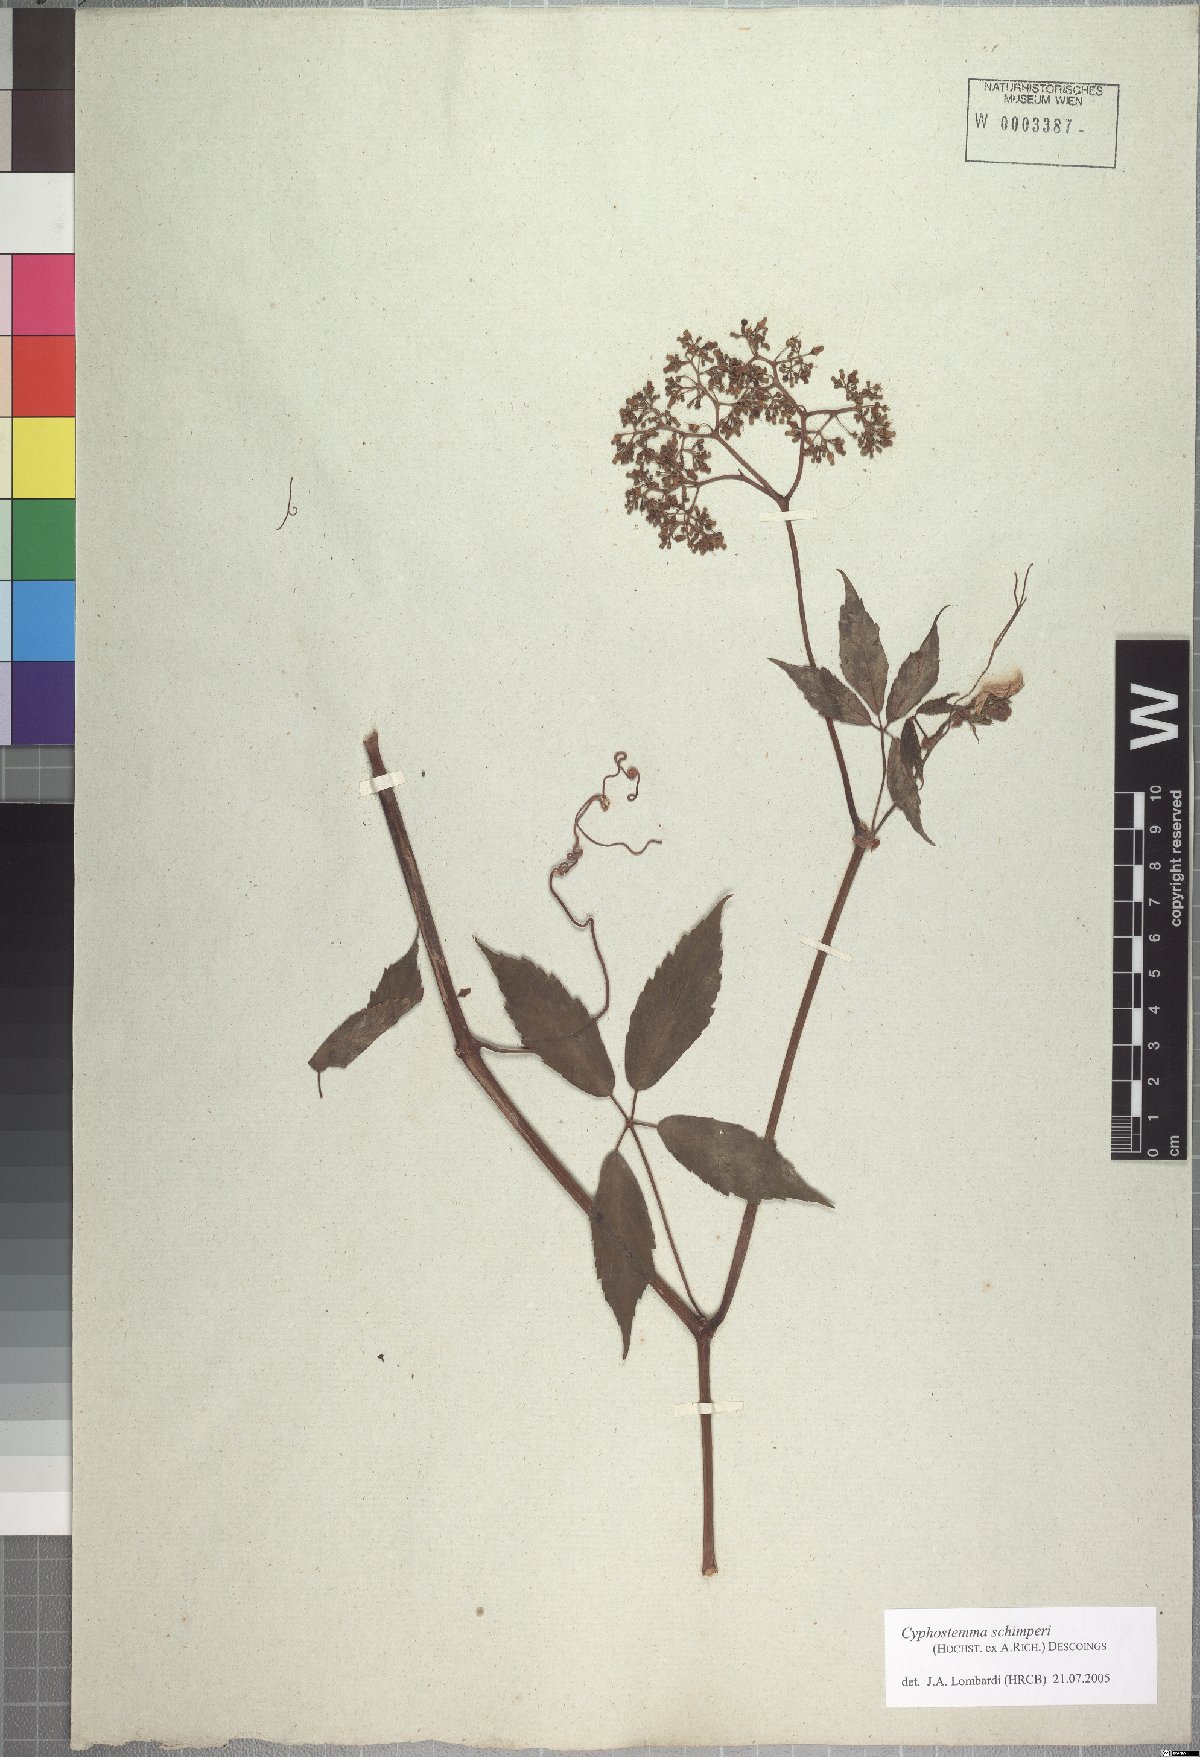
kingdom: Plantae
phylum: Tracheophyta
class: Magnoliopsida
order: Vitales
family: Vitaceae
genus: Cyphostemma
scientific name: Cyphostemma oxyphyllum
